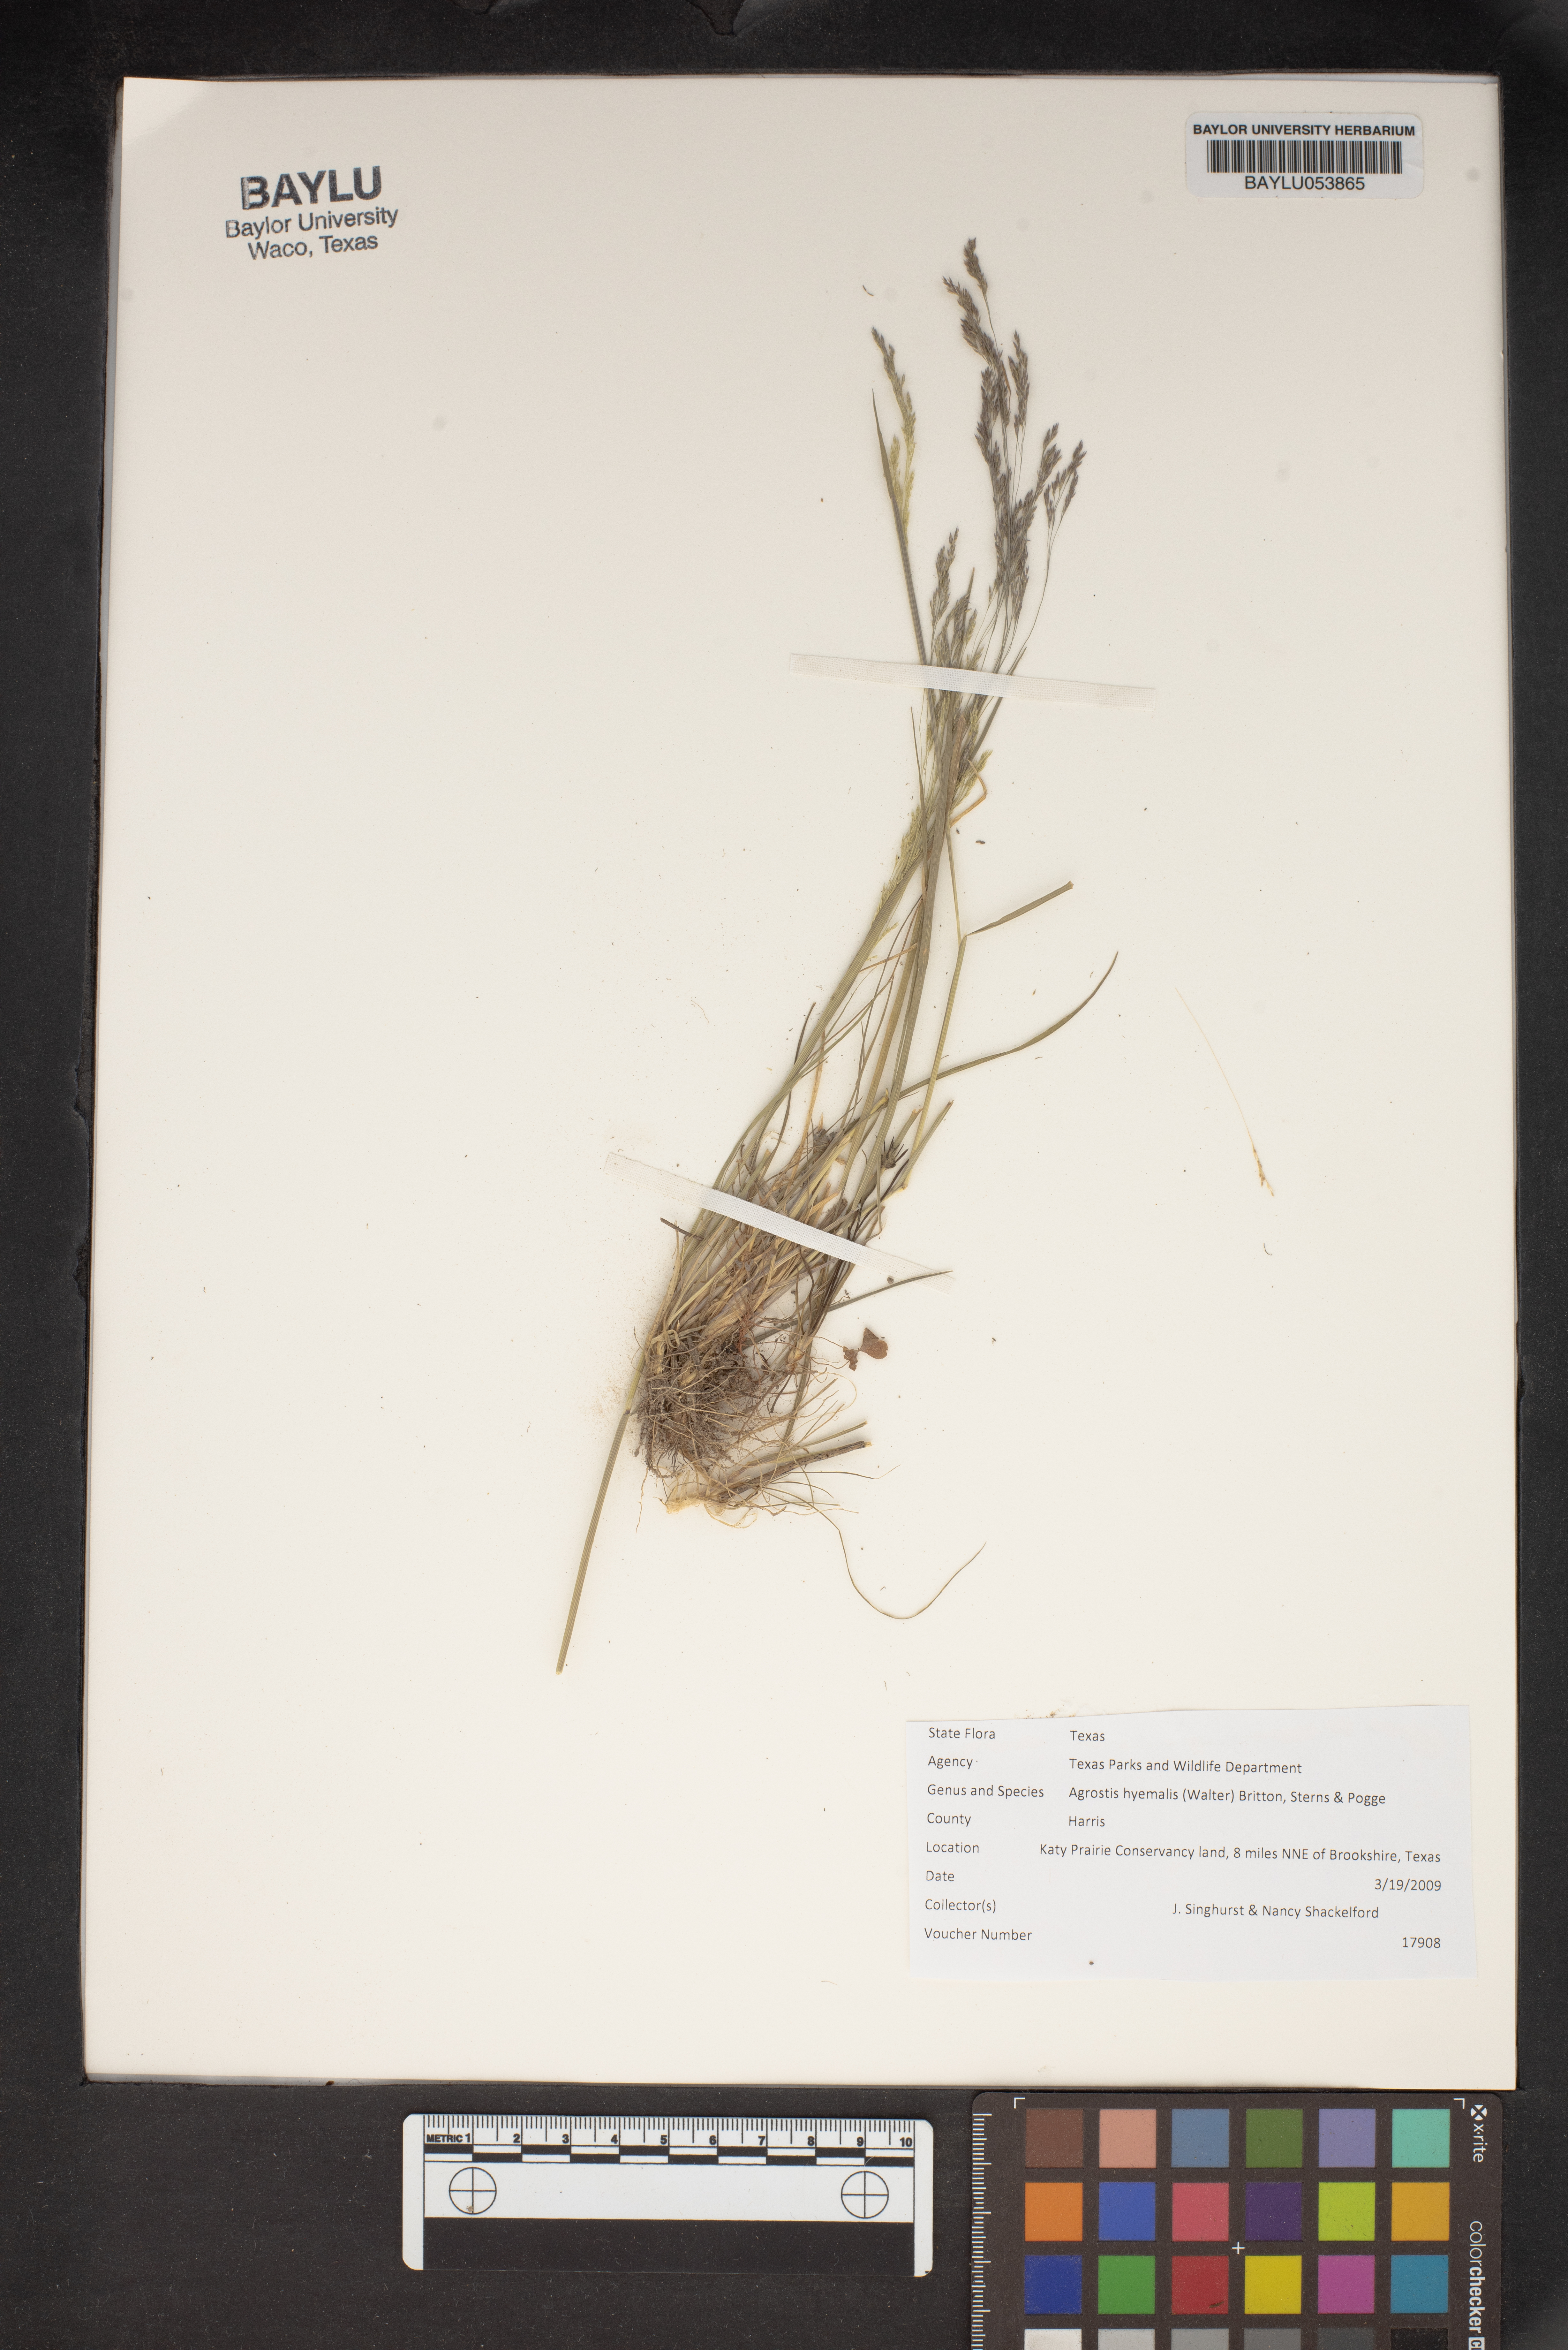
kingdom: Plantae
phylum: Tracheophyta
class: Liliopsida
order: Poales
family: Poaceae
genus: Agrostis
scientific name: Agrostis hyemalis
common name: Small bent
